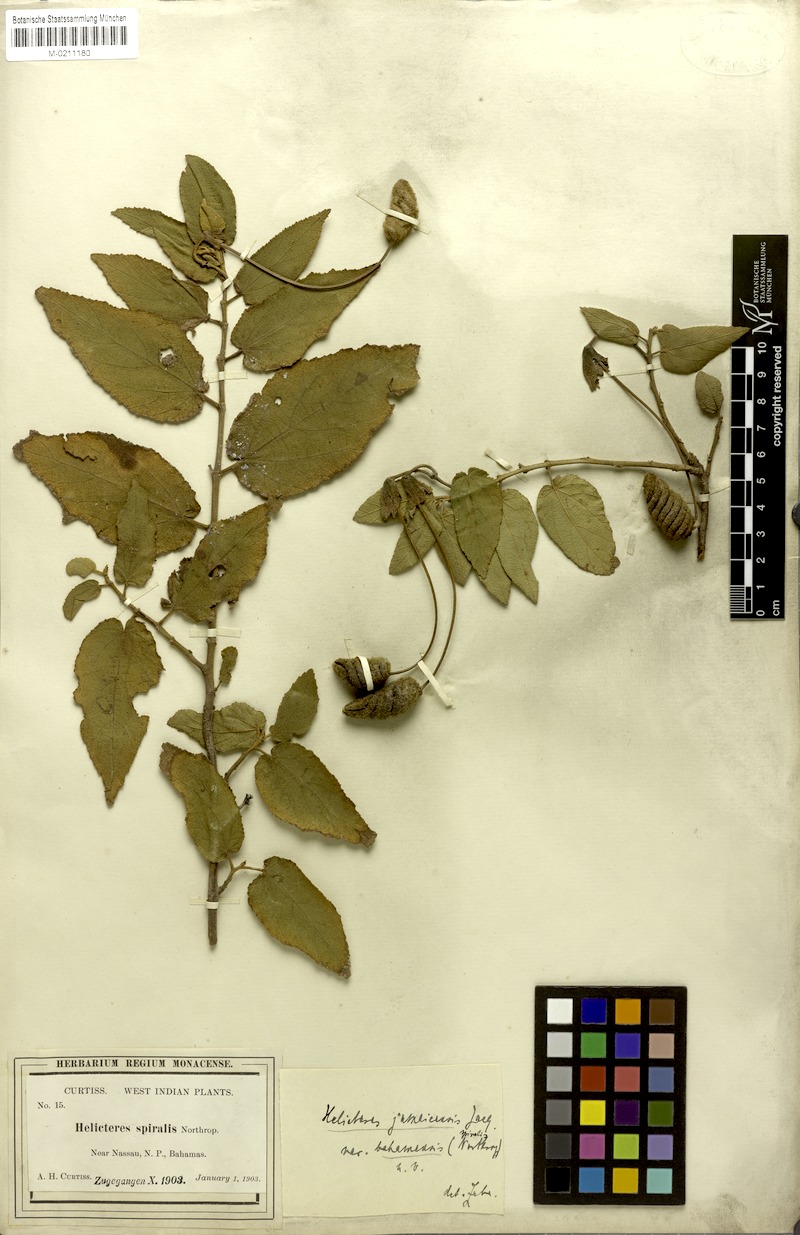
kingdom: Plantae
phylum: Tracheophyta
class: Magnoliopsida
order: Malvales
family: Malvaceae
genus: Helicteres
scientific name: Helicteres jamaicensis
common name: Cowbush
